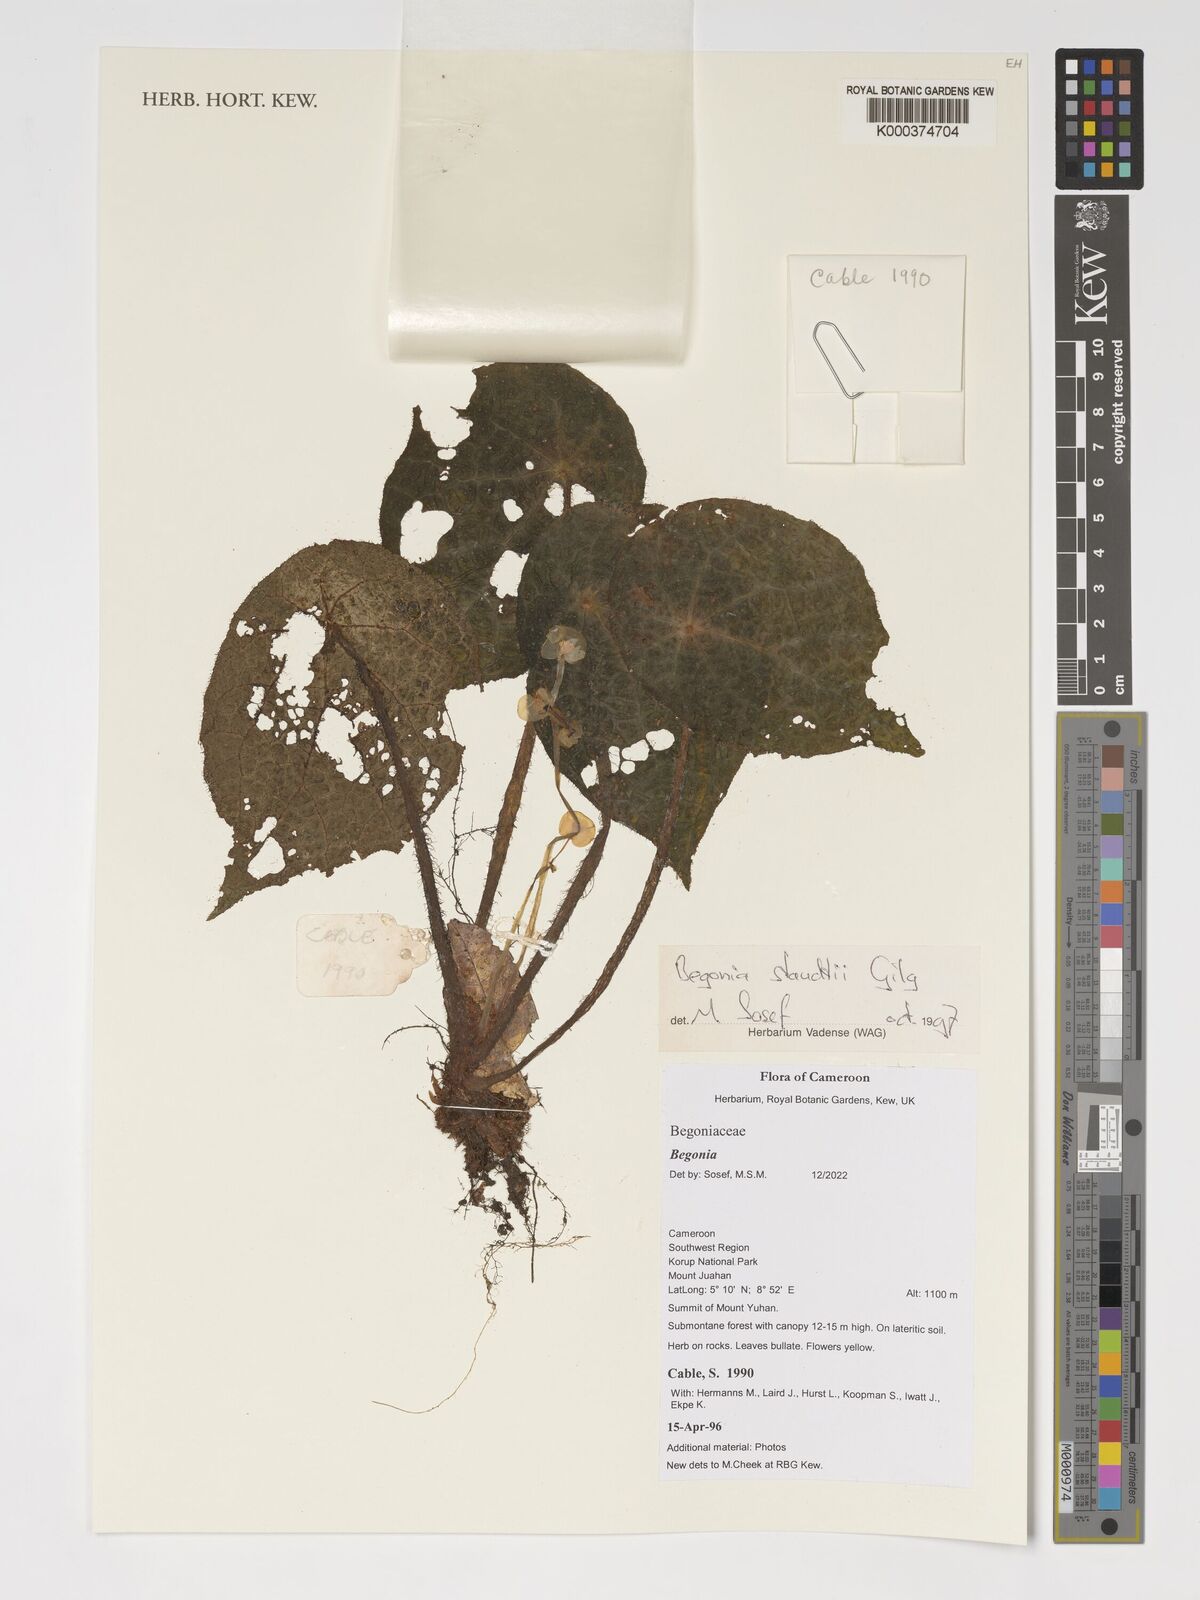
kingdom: Plantae
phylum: Tracheophyta
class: Magnoliopsida
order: Cucurbitales
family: Begoniaceae
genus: Begonia
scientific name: Begonia
